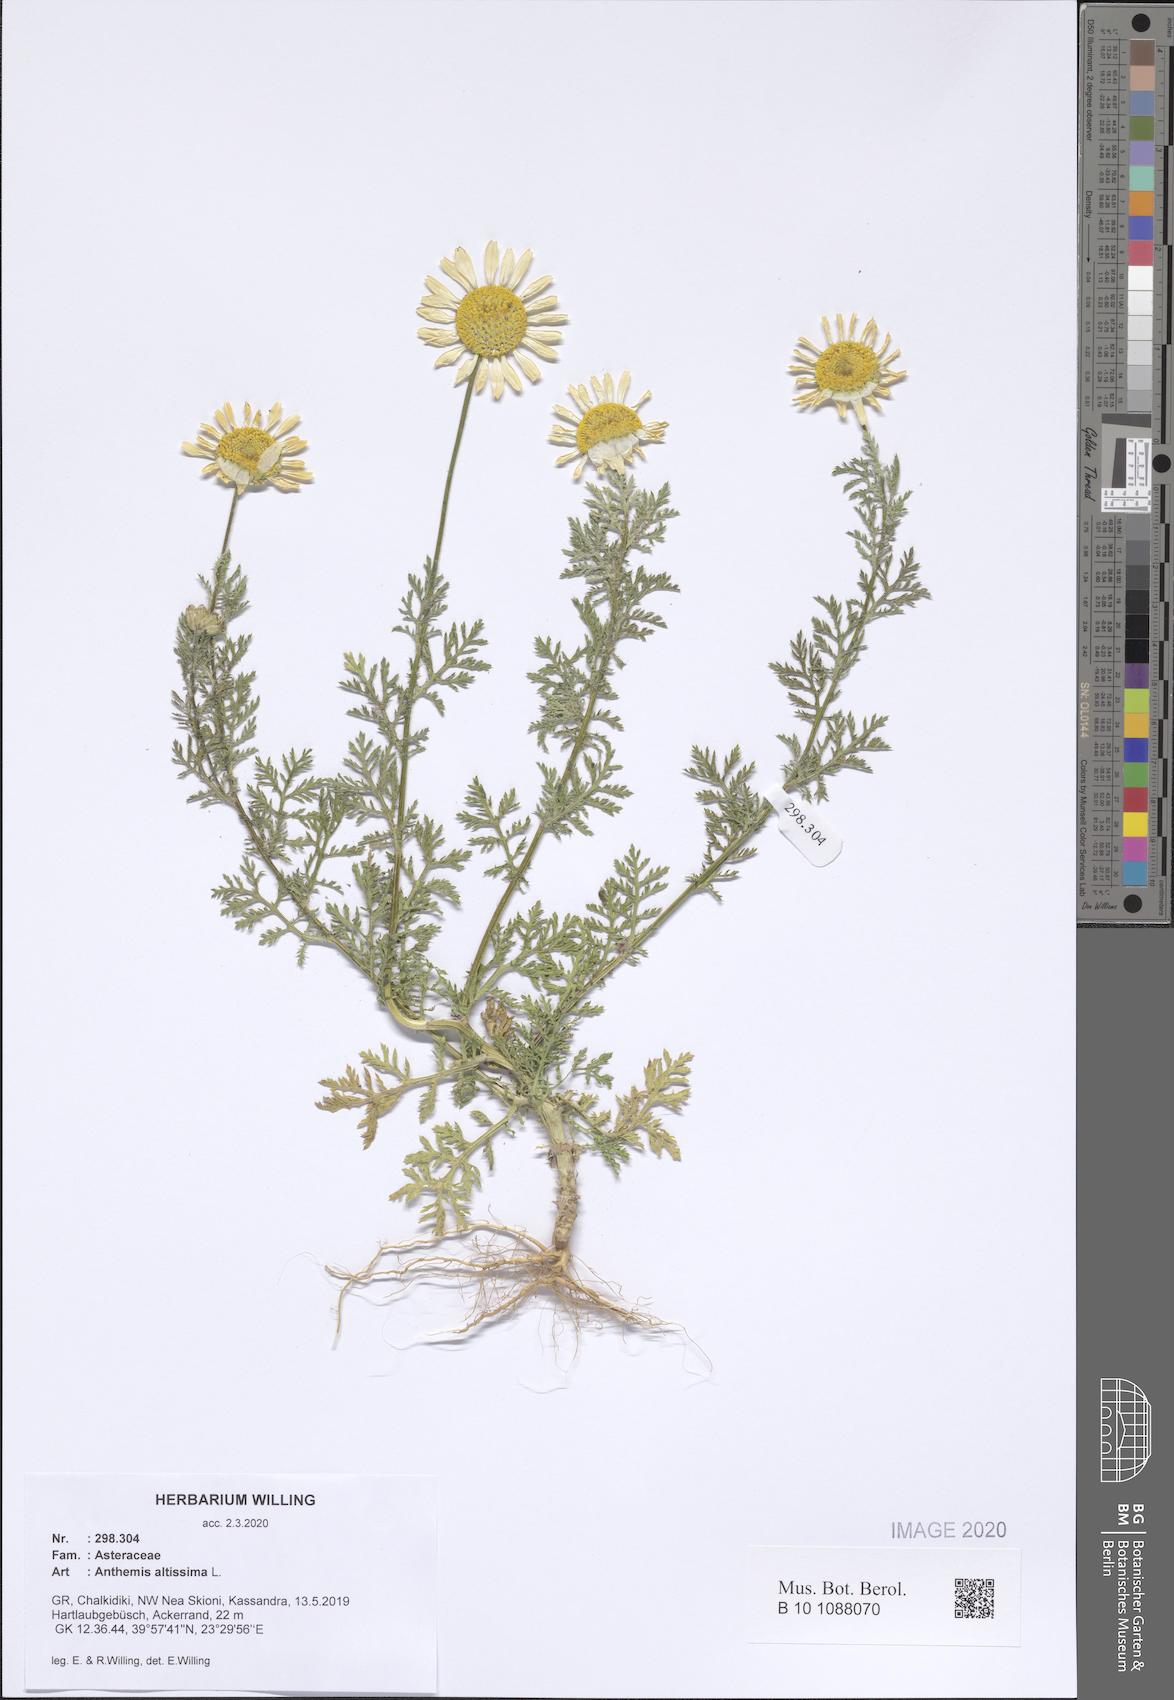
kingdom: Plantae
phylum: Tracheophyta
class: Magnoliopsida
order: Asterales
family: Asteraceae
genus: Cota
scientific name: Cota altissima
